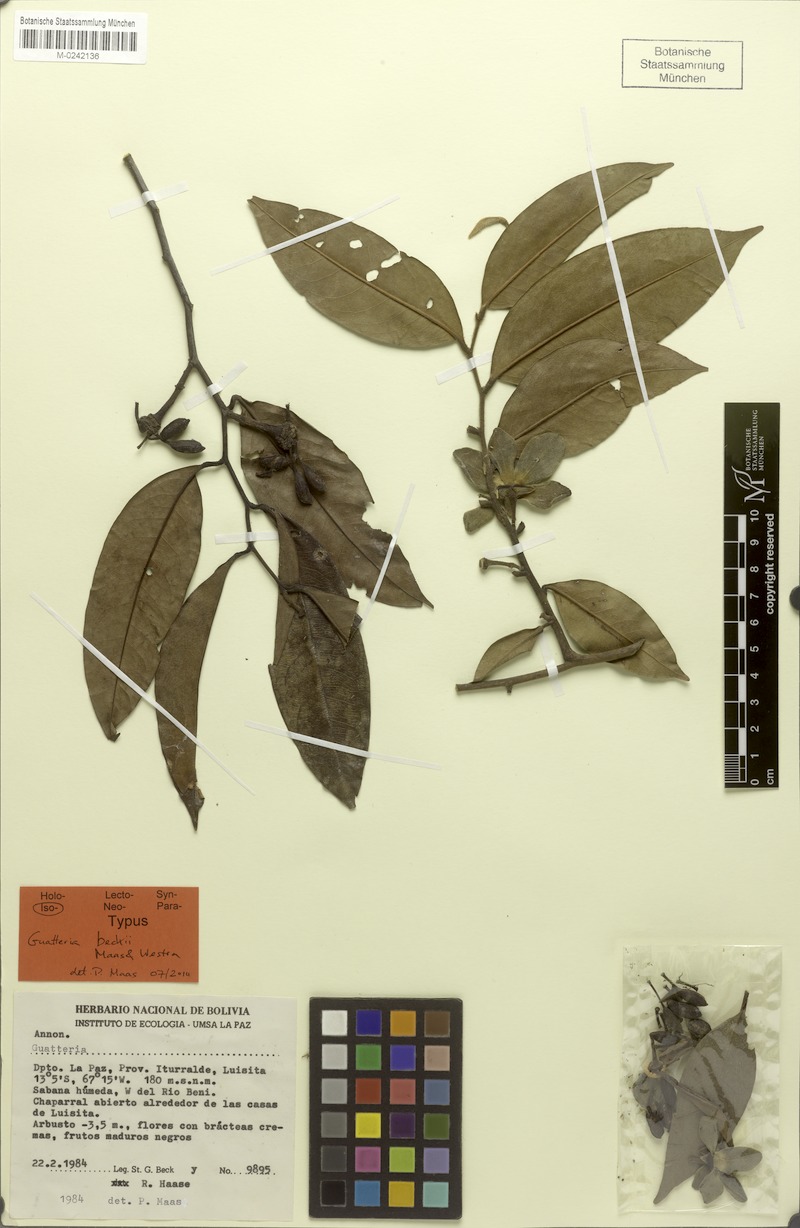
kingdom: Plantae
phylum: Tracheophyta
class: Magnoliopsida
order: Magnoliales
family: Annonaceae
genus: Guatteria
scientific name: Guatteria beckii
